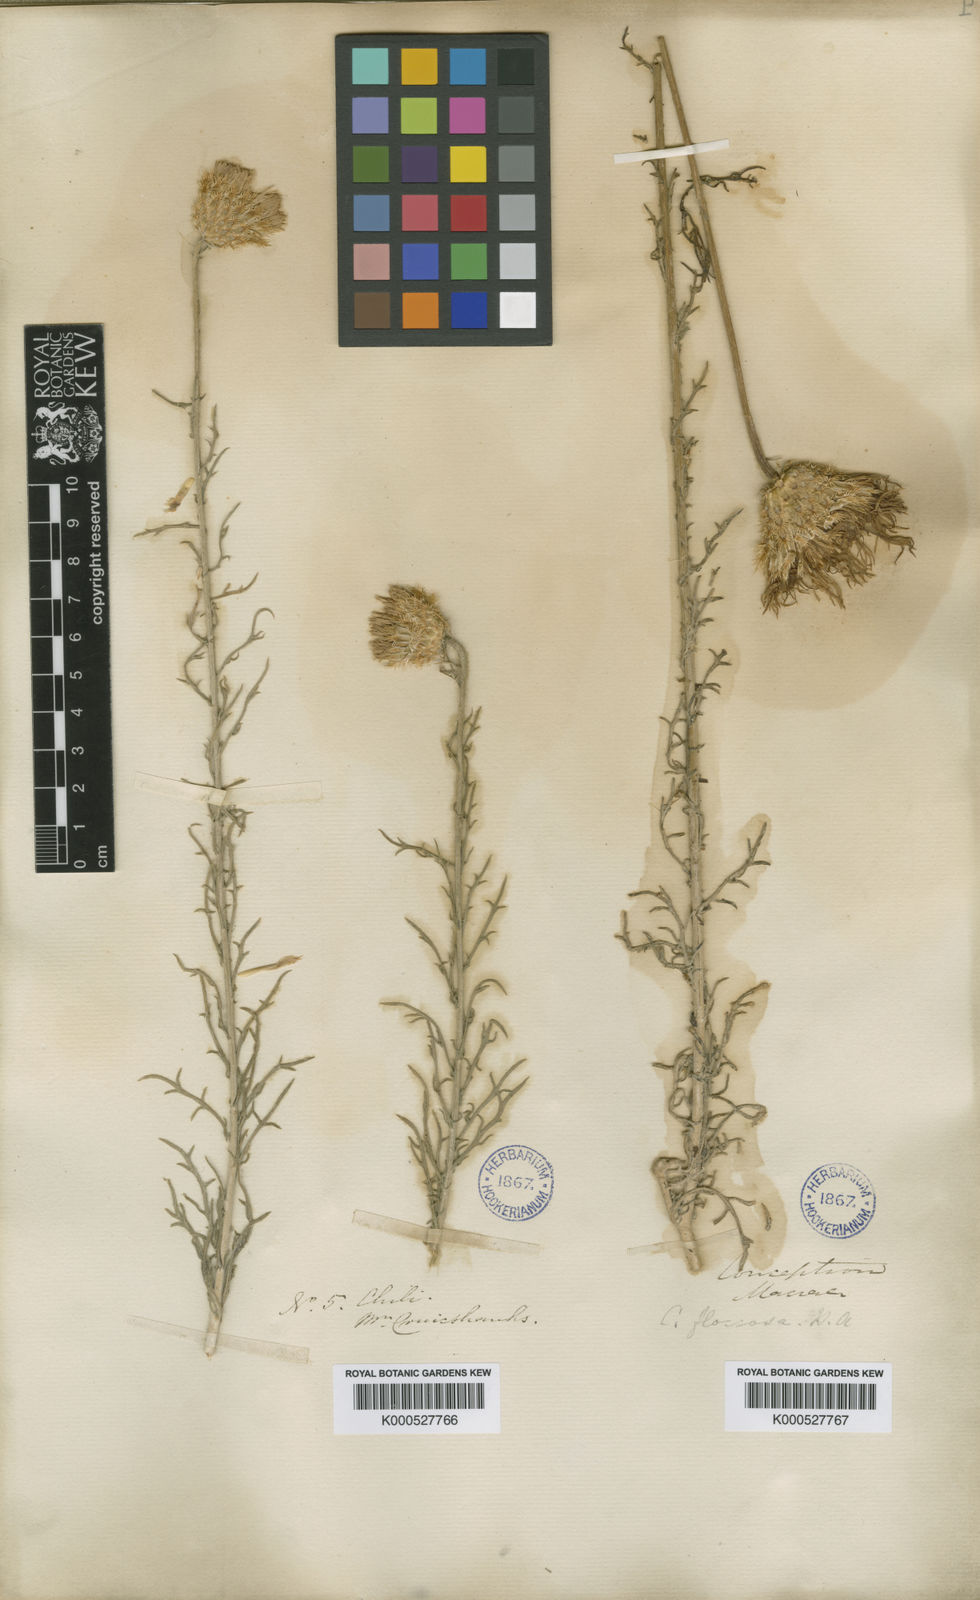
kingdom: Plantae
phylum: Tracheophyta
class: Magnoliopsida
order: Asterales
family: Asteraceae
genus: Plectocephalus
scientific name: Plectocephalus floccosus
